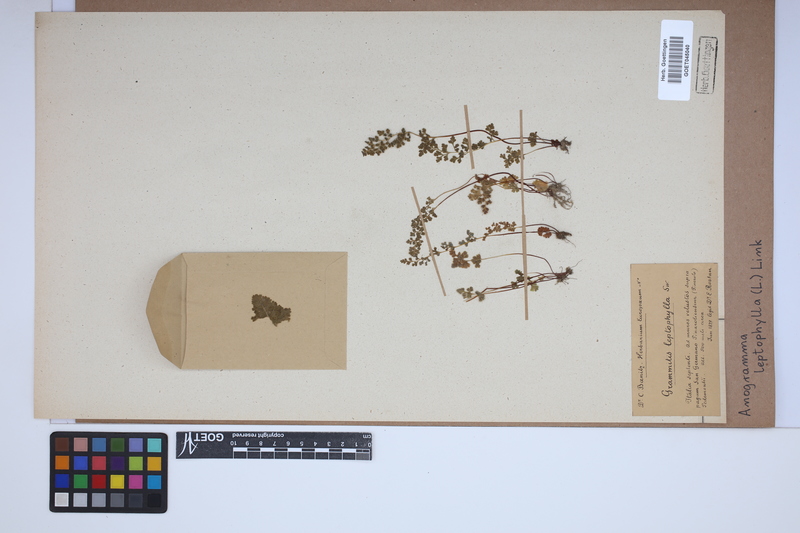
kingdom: Plantae
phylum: Tracheophyta
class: Polypodiopsida
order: Polypodiales
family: Pteridaceae
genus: Anogramma
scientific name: Anogramma leptophylla
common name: Jersey fern
